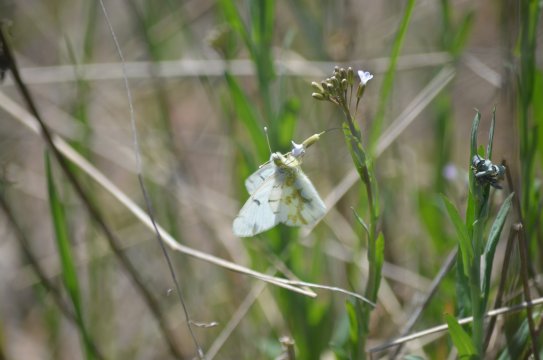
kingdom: Animalia
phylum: Arthropoda
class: Insecta
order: Lepidoptera
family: Pieridae
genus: Euchloe
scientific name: Euchloe olympia
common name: Olympia Marble
